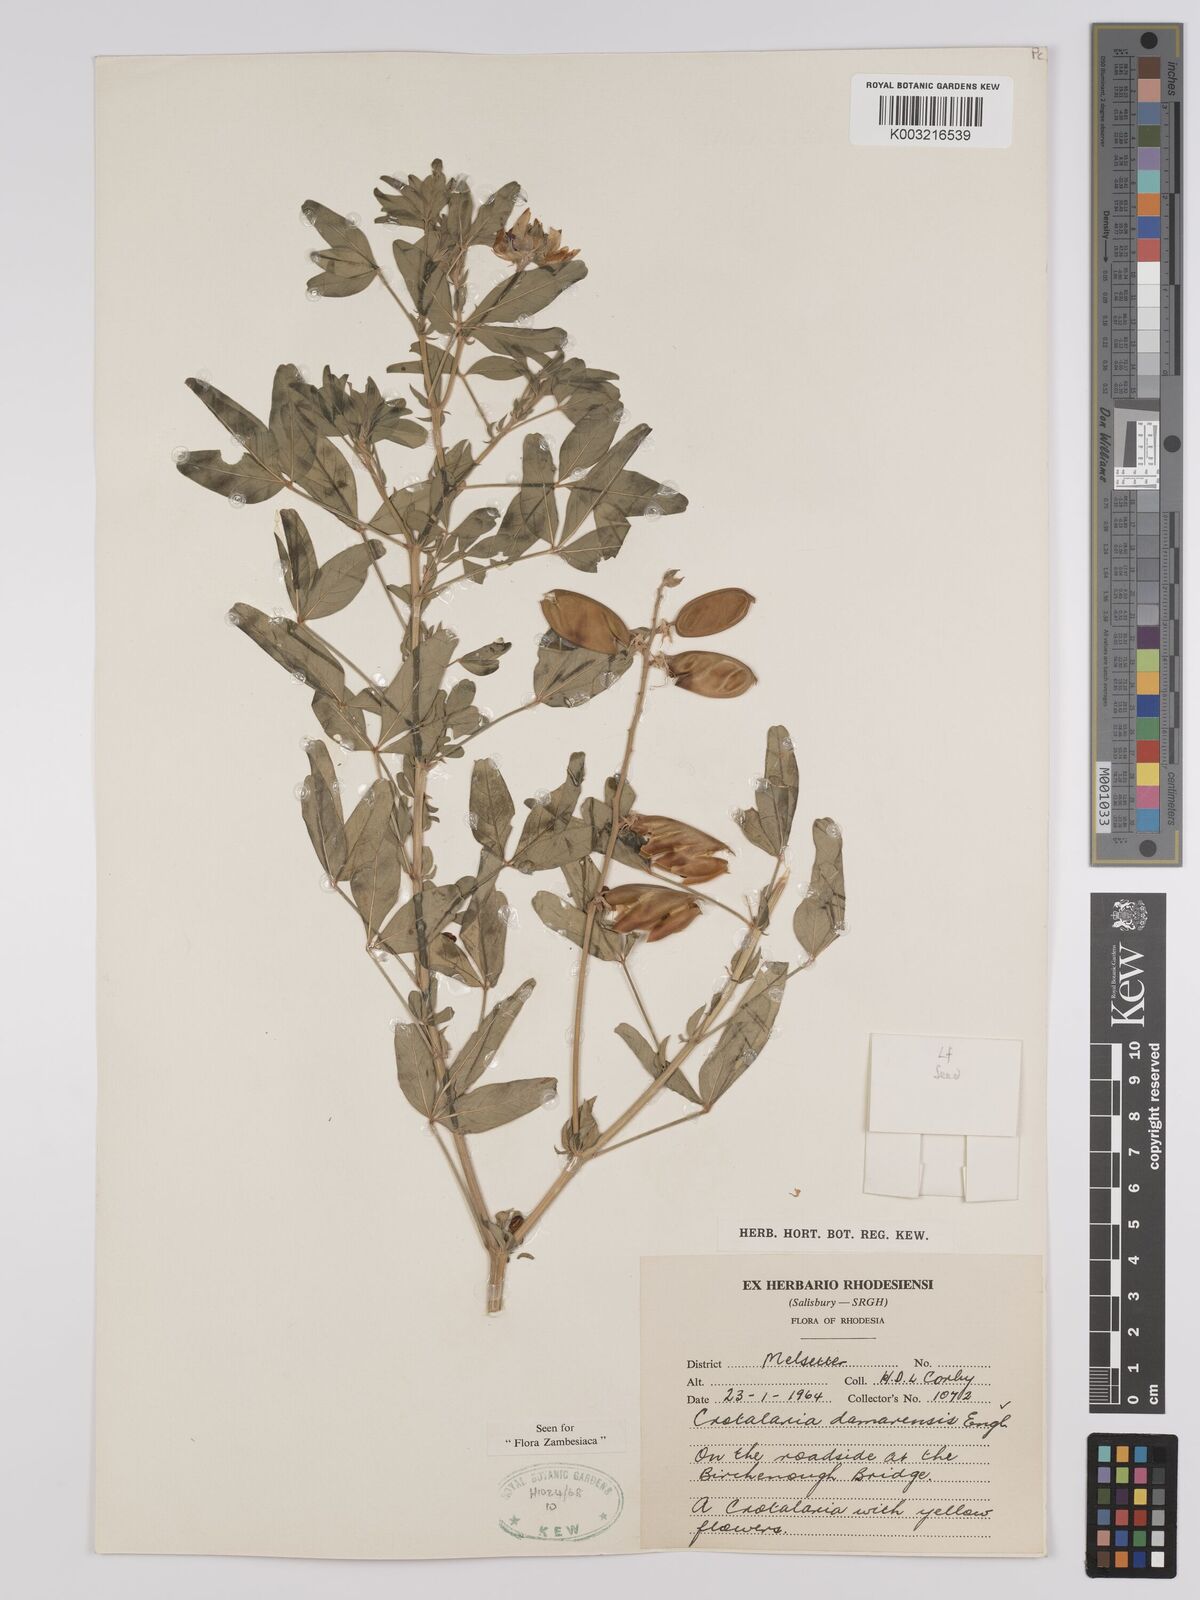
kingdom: Plantae
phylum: Tracheophyta
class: Magnoliopsida
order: Fabales
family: Fabaceae
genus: Crotalaria
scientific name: Crotalaria damarensis
